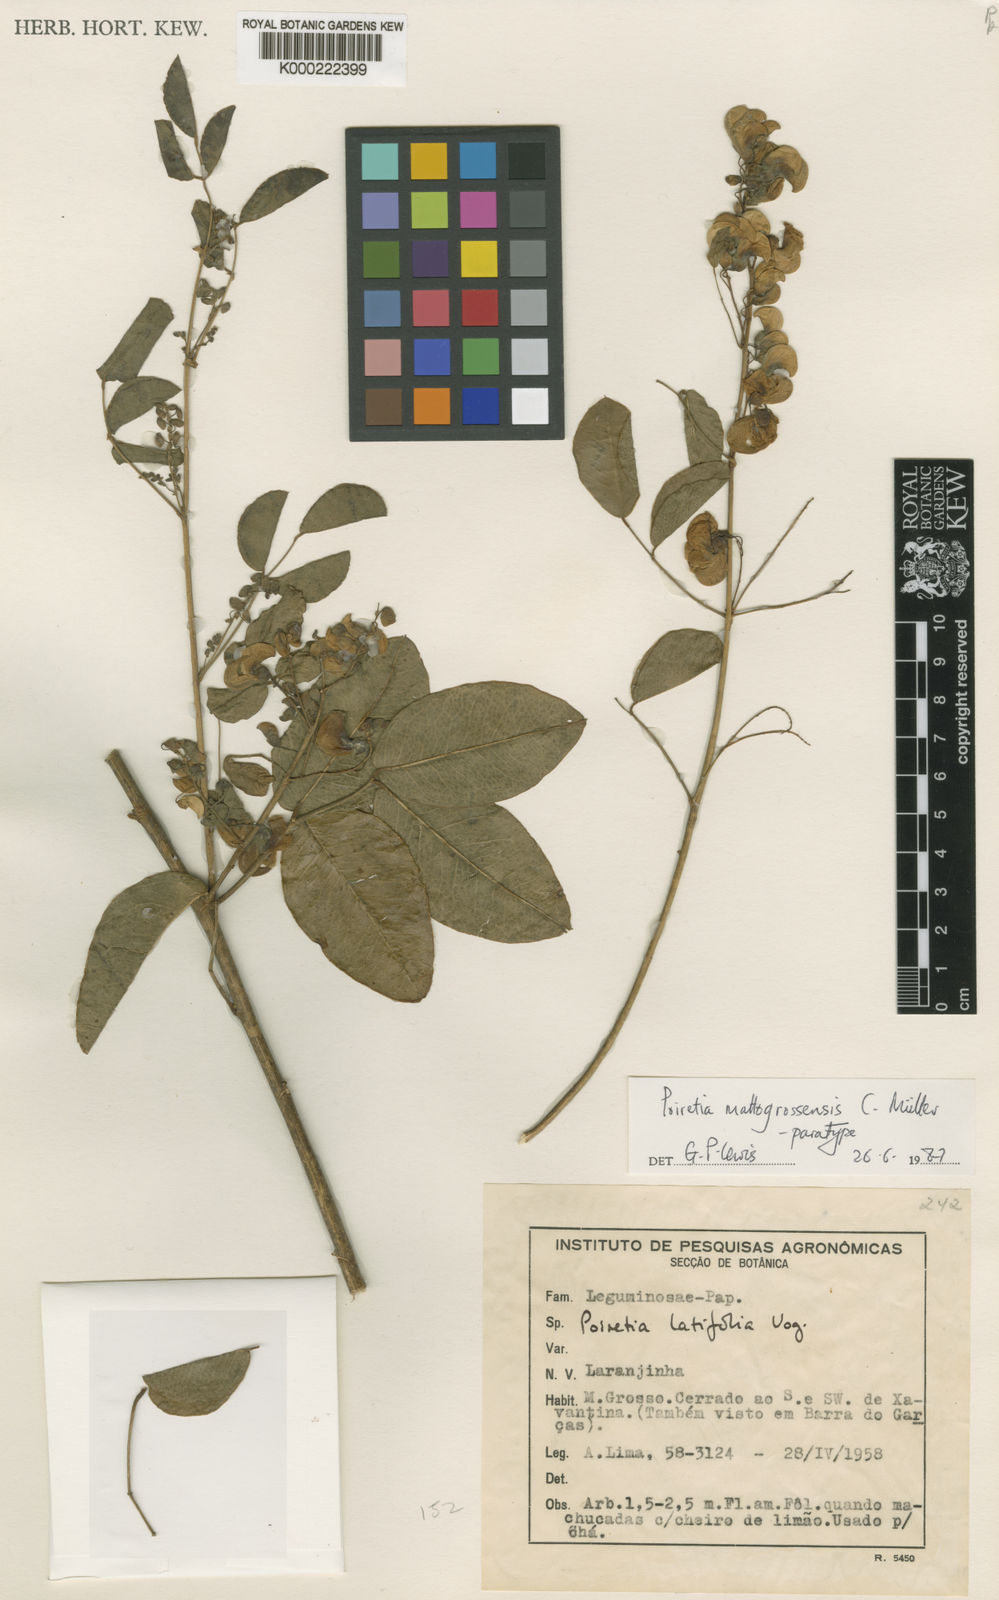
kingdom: Plantae
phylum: Tracheophyta
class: Magnoliopsida
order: Fabales
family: Fabaceae
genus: Poiretia
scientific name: Poiretia
